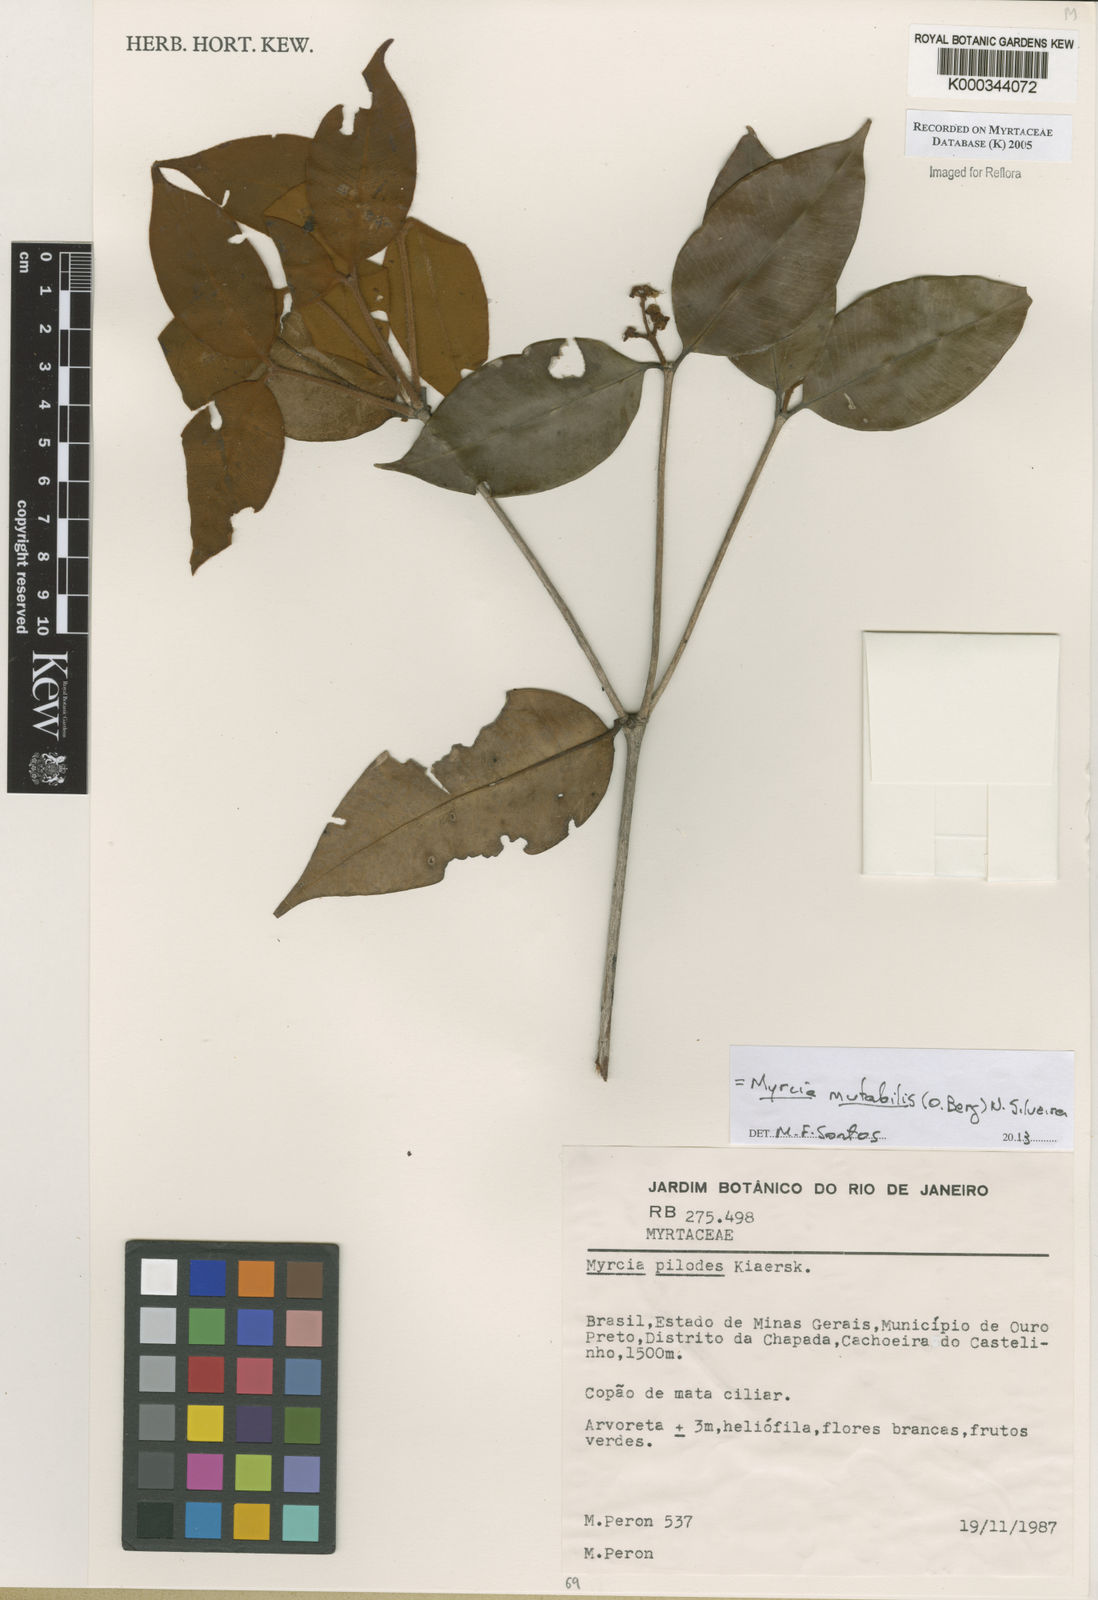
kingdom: Plantae
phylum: Tracheophyta
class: Magnoliopsida
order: Myrtales
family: Myrtaceae
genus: Myrcia
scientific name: Myrcia mutabilis
